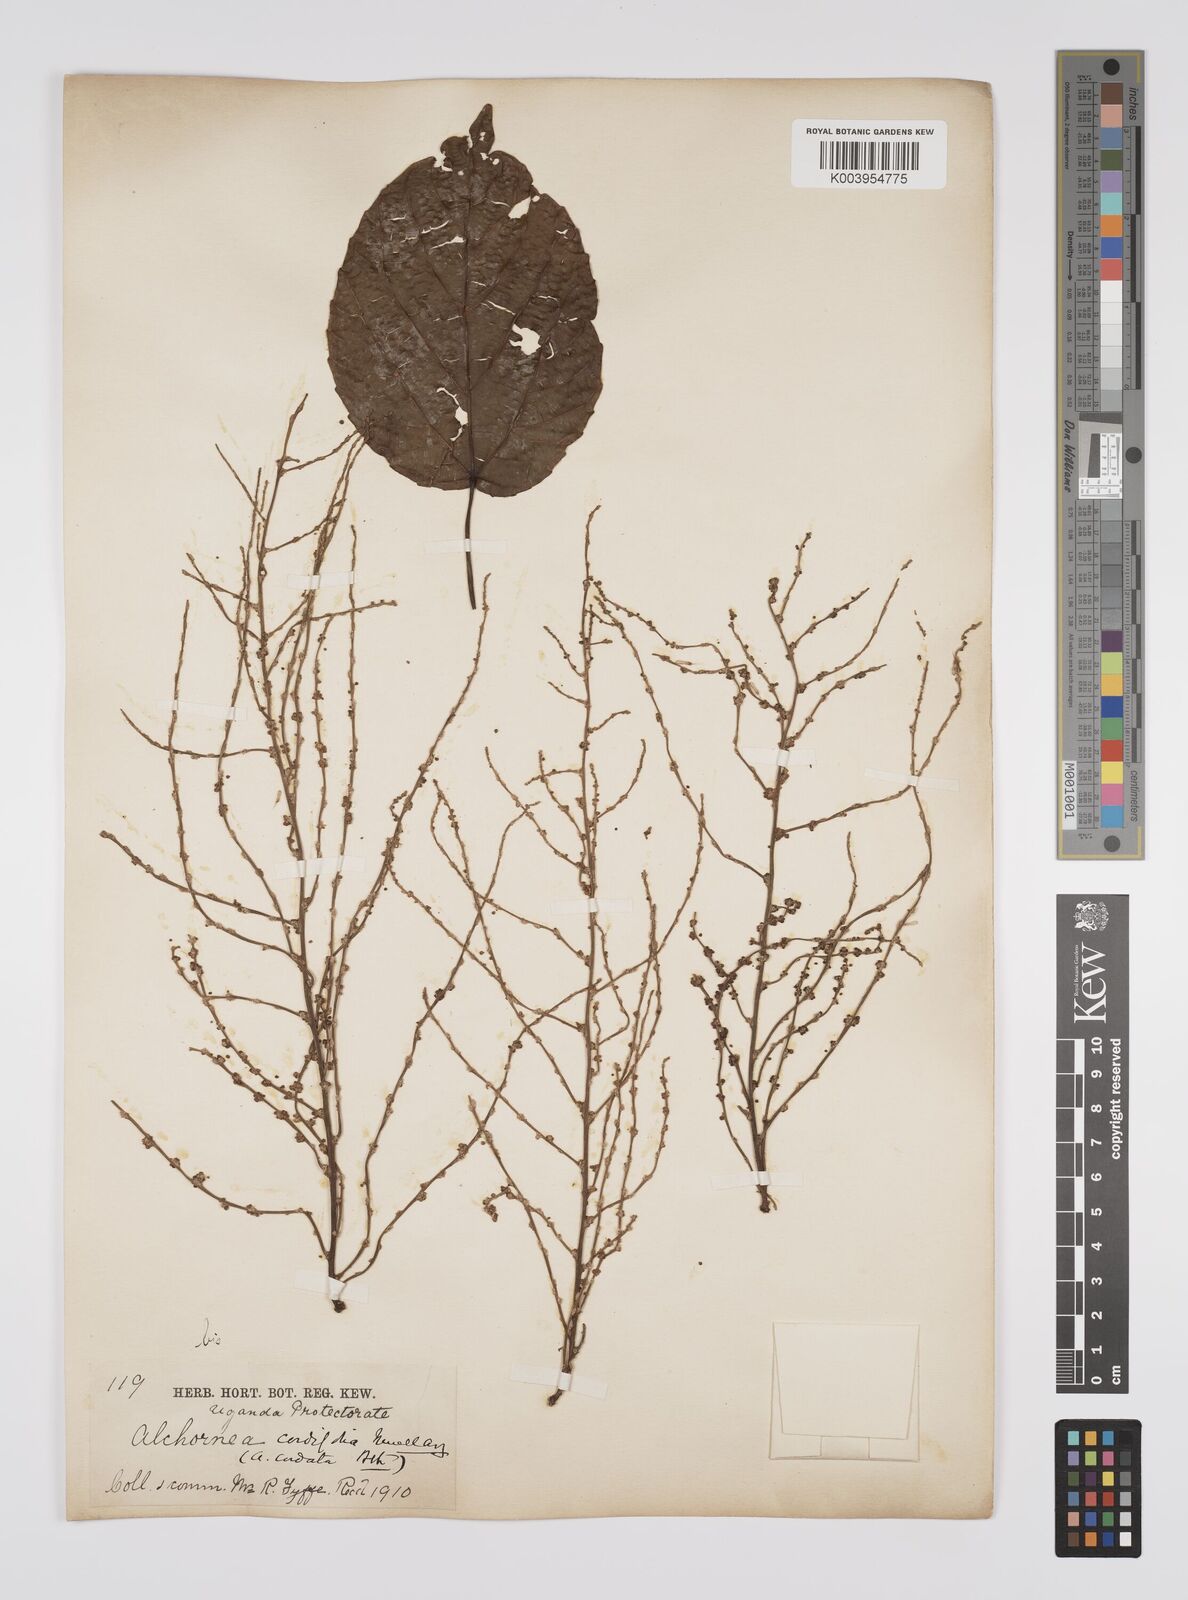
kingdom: Plantae
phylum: Tracheophyta
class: Magnoliopsida
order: Malpighiales
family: Euphorbiaceae
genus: Alchornea
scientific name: Alchornea cordifolia
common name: Christmasbush
